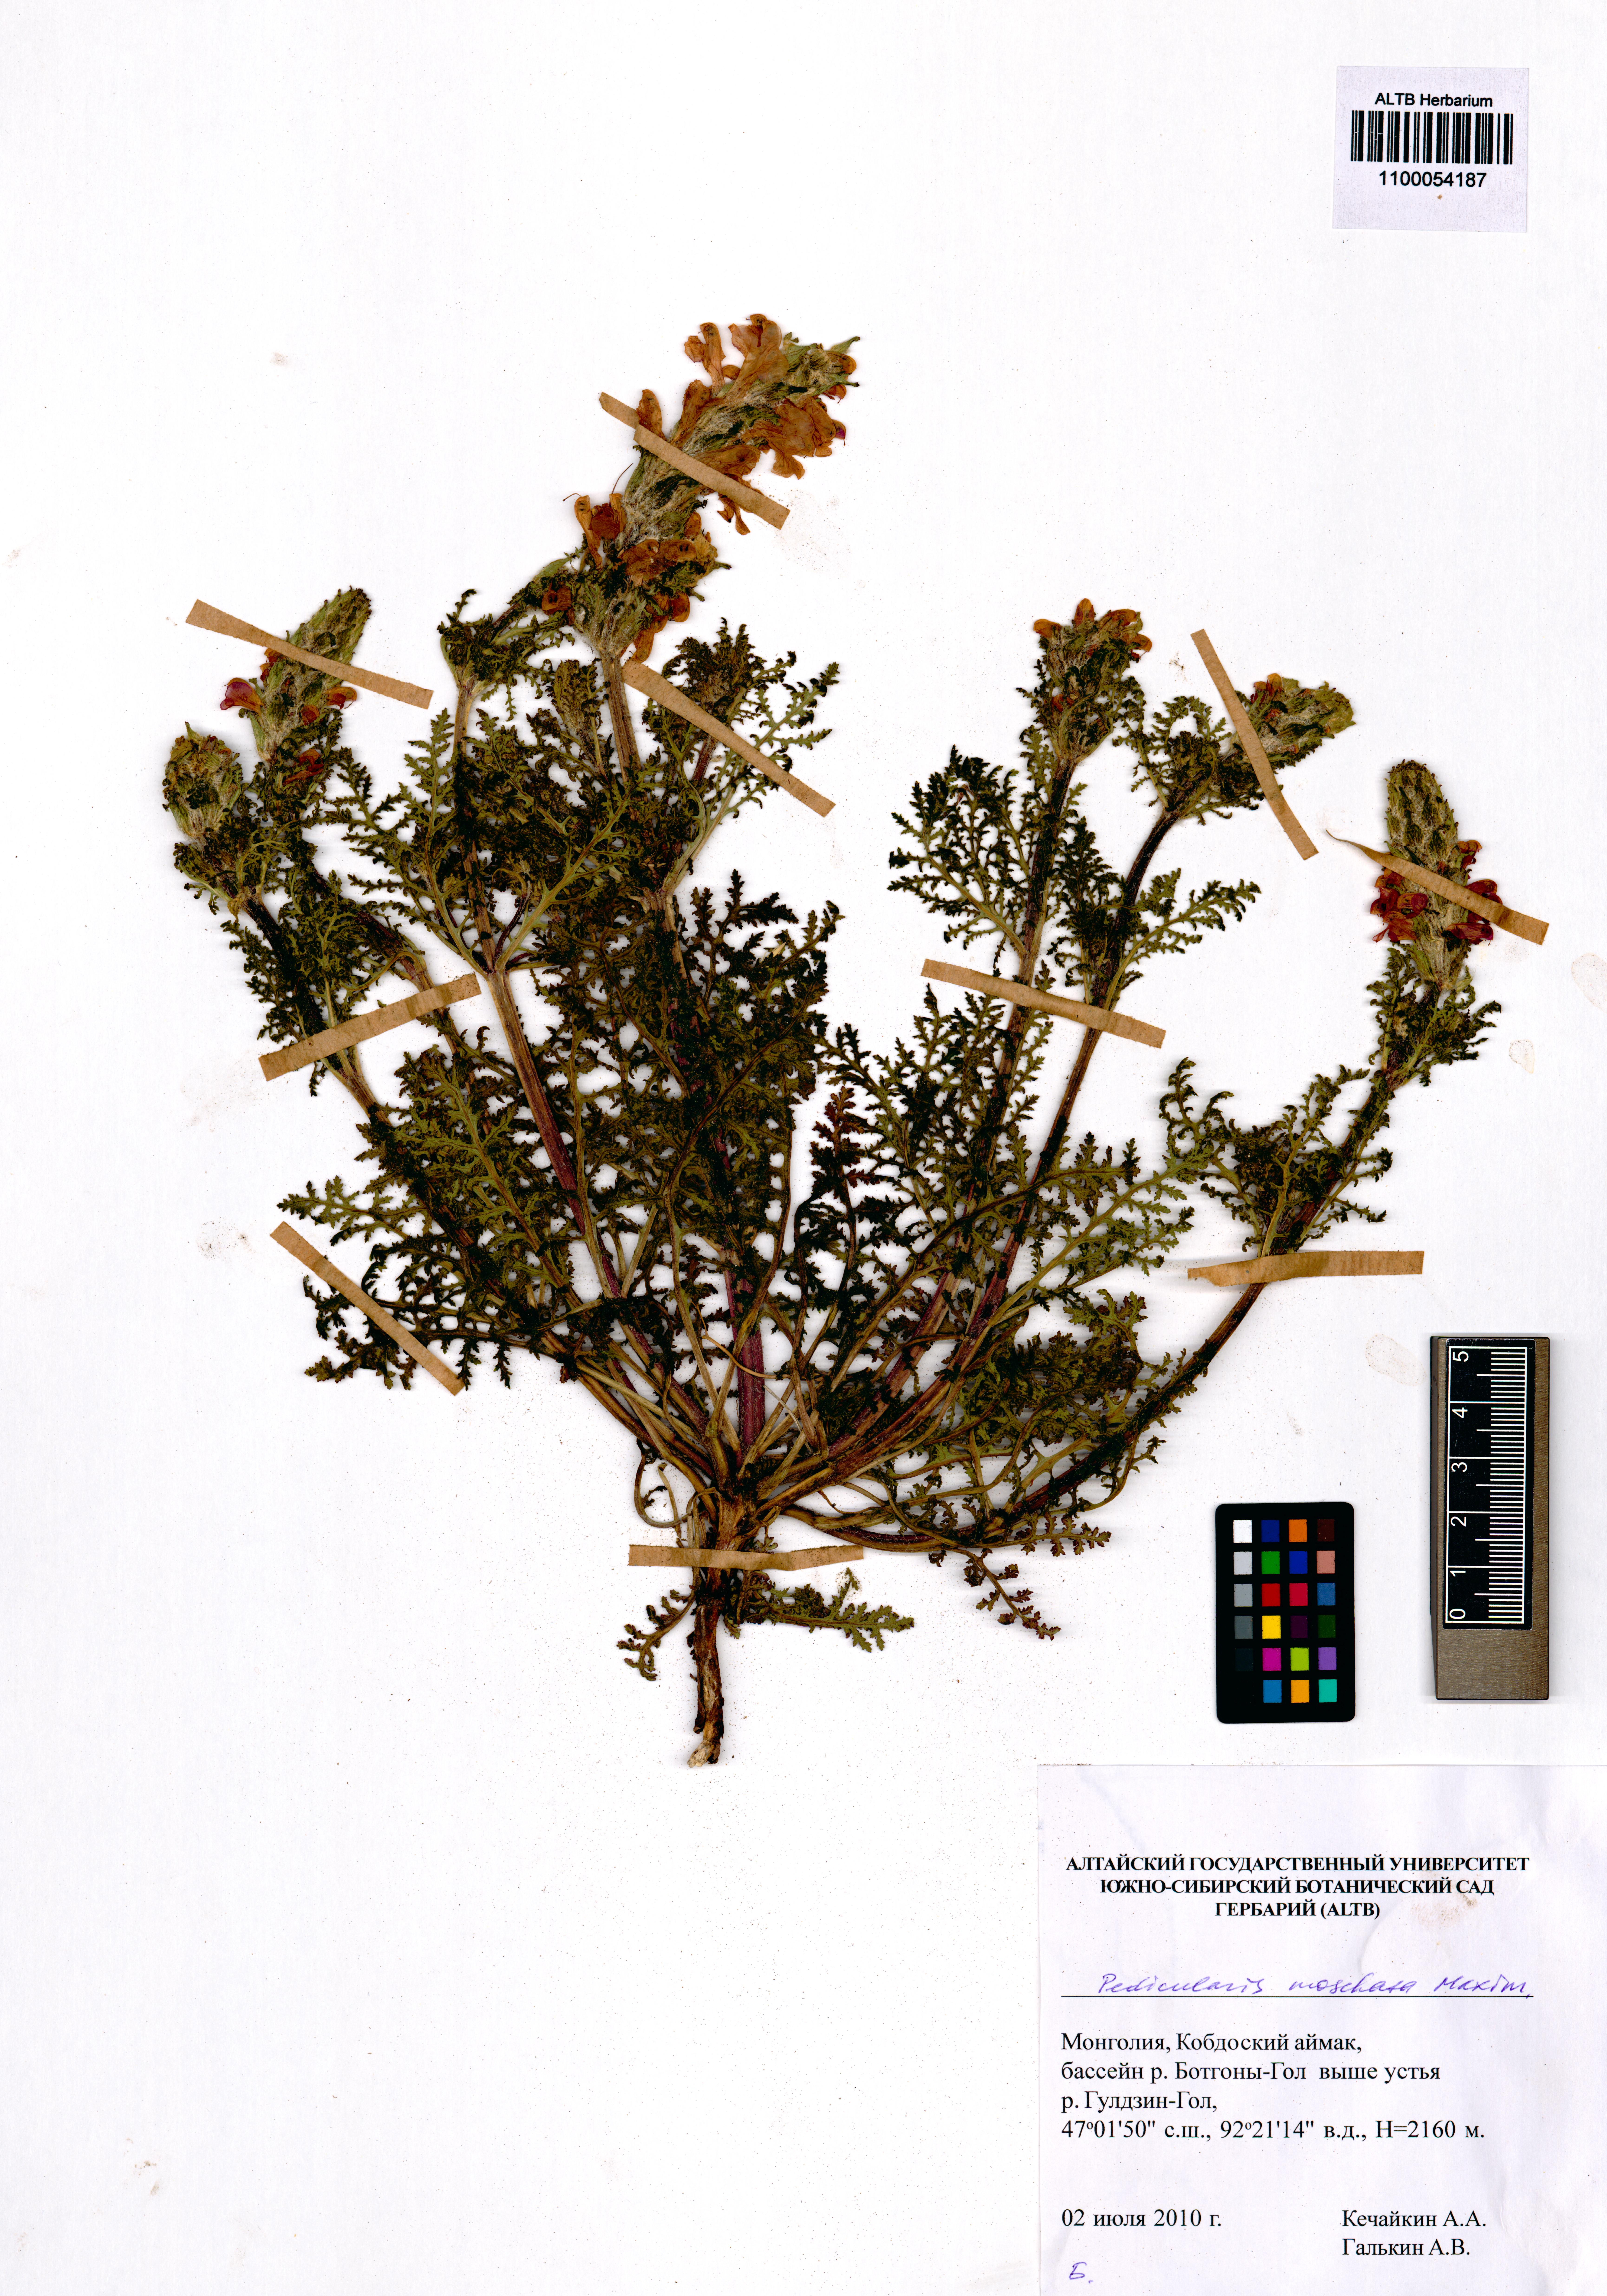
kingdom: Plantae
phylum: Tracheophyta
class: Magnoliopsida
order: Lamiales
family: Orobanchaceae
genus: Pedicularis
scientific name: Pedicularis moschata
